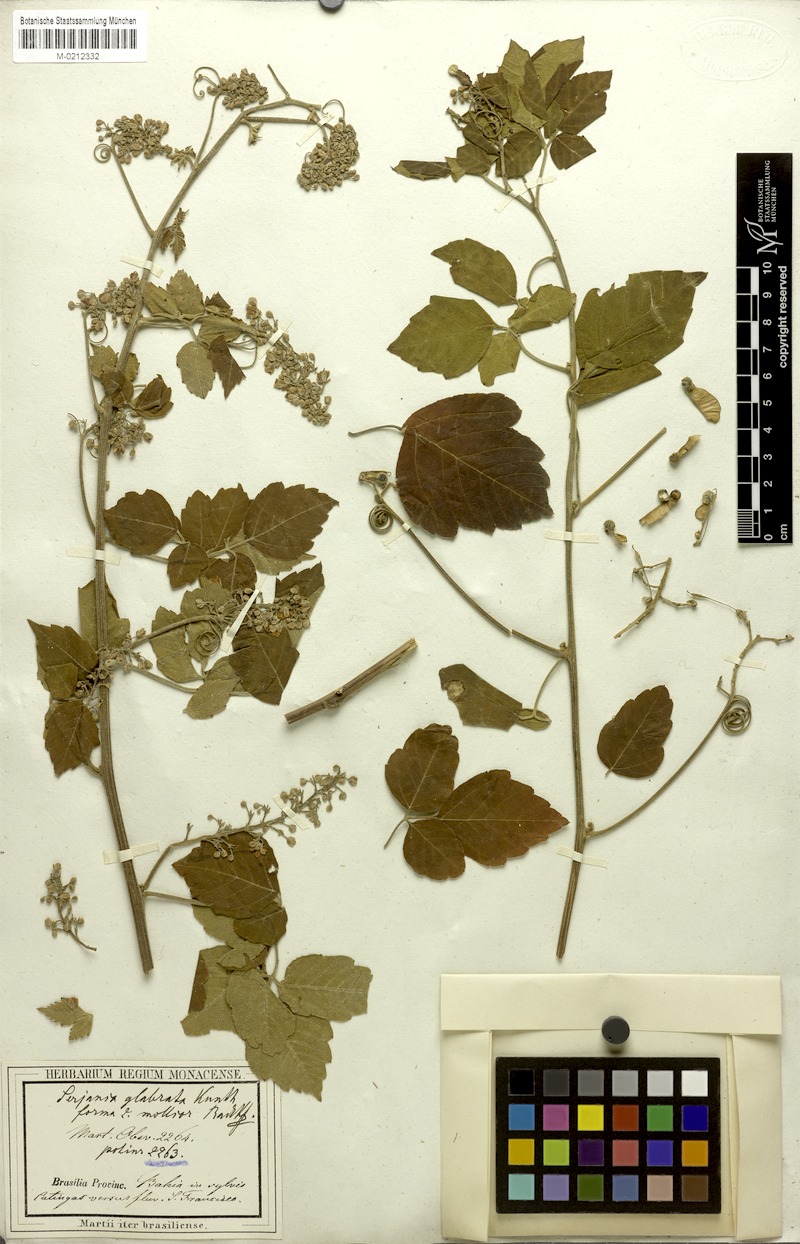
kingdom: Plantae
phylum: Tracheophyta
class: Magnoliopsida
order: Sapindales
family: Sapindaceae
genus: Serjania
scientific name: Serjania glabrata
